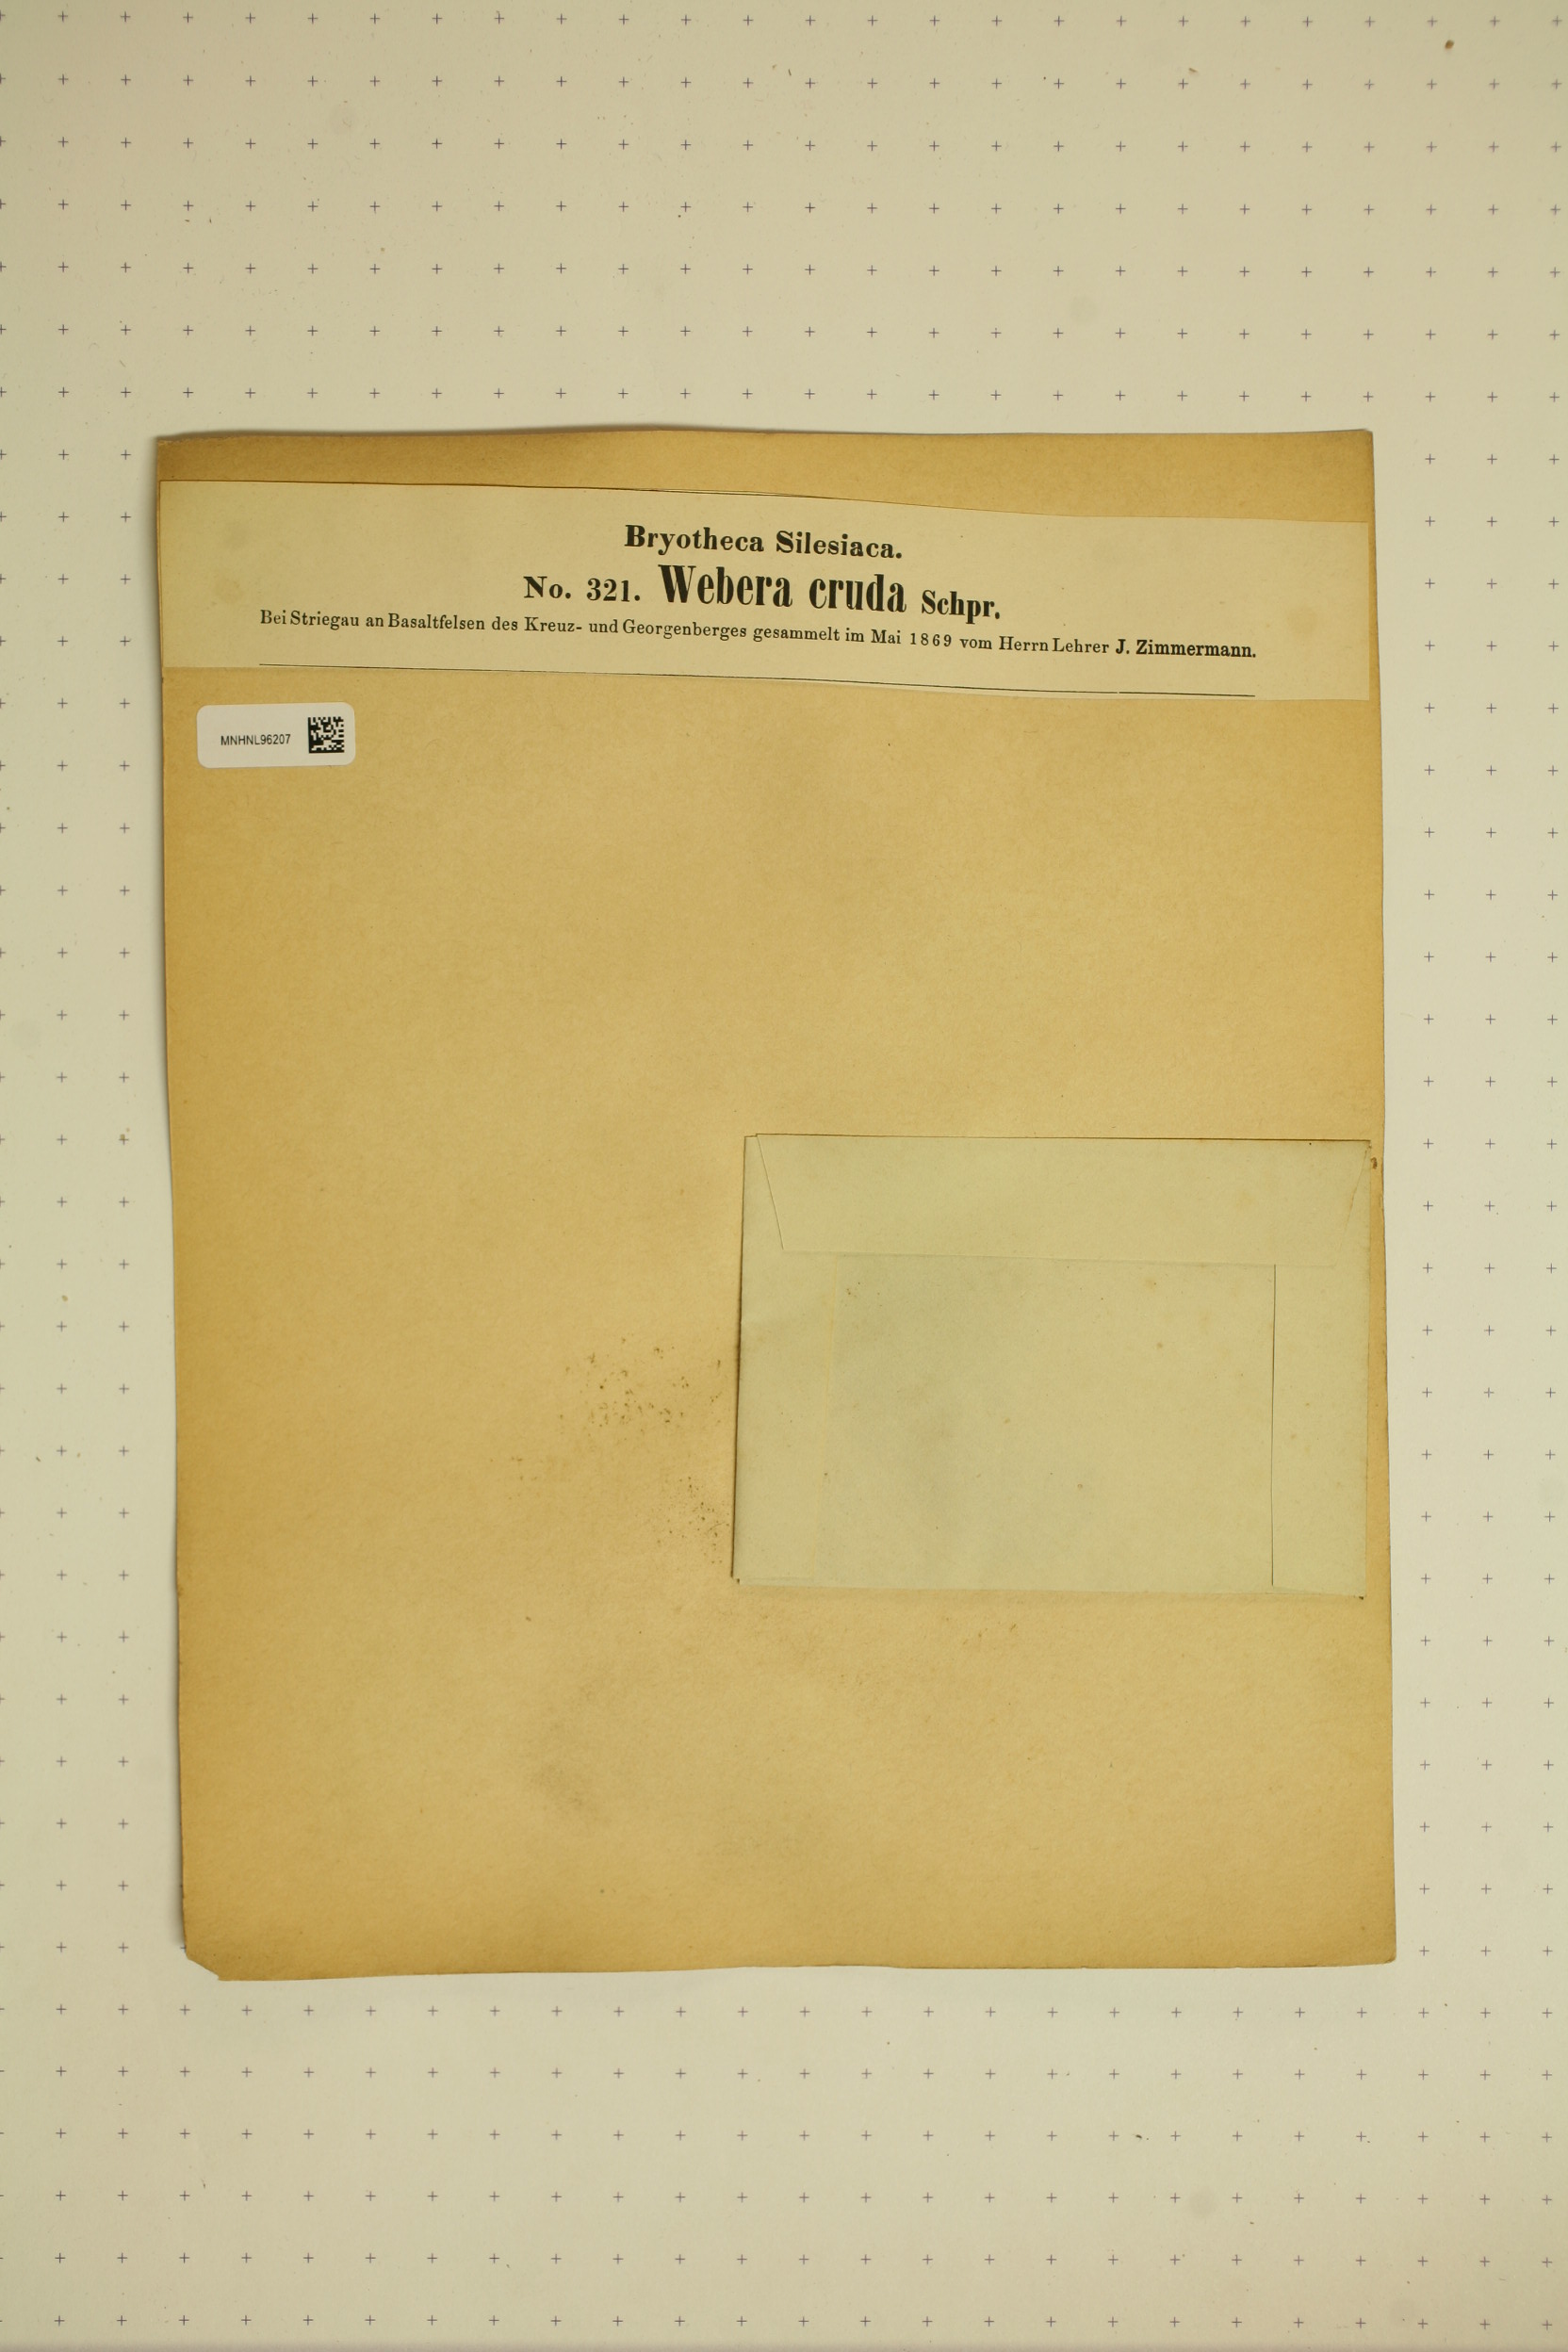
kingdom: Plantae
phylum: Bryophyta
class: Bryopsida
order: Bryales
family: Mniaceae
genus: Pohlia
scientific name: Pohlia cruda
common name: Opal nodding moss
